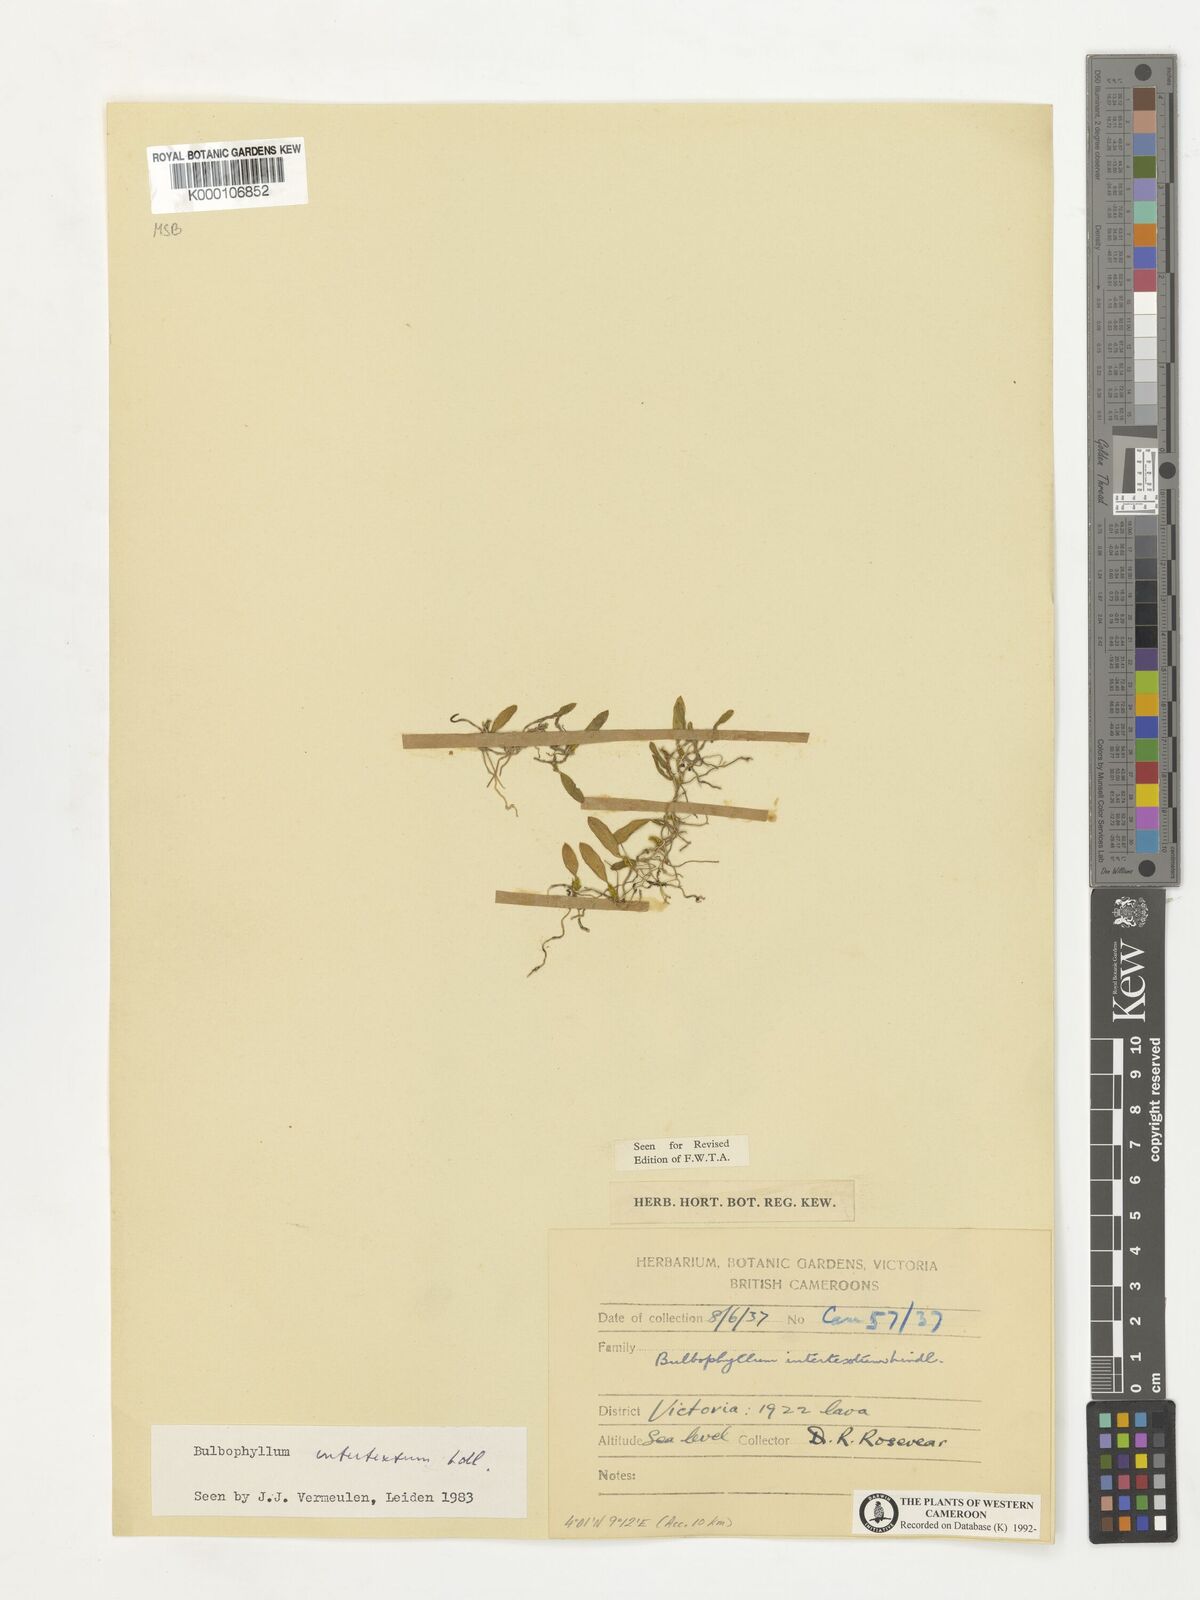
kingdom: Plantae
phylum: Tracheophyta
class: Liliopsida
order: Asparagales
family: Orchidaceae
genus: Bulbophyllum
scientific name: Bulbophyllum intertextum
